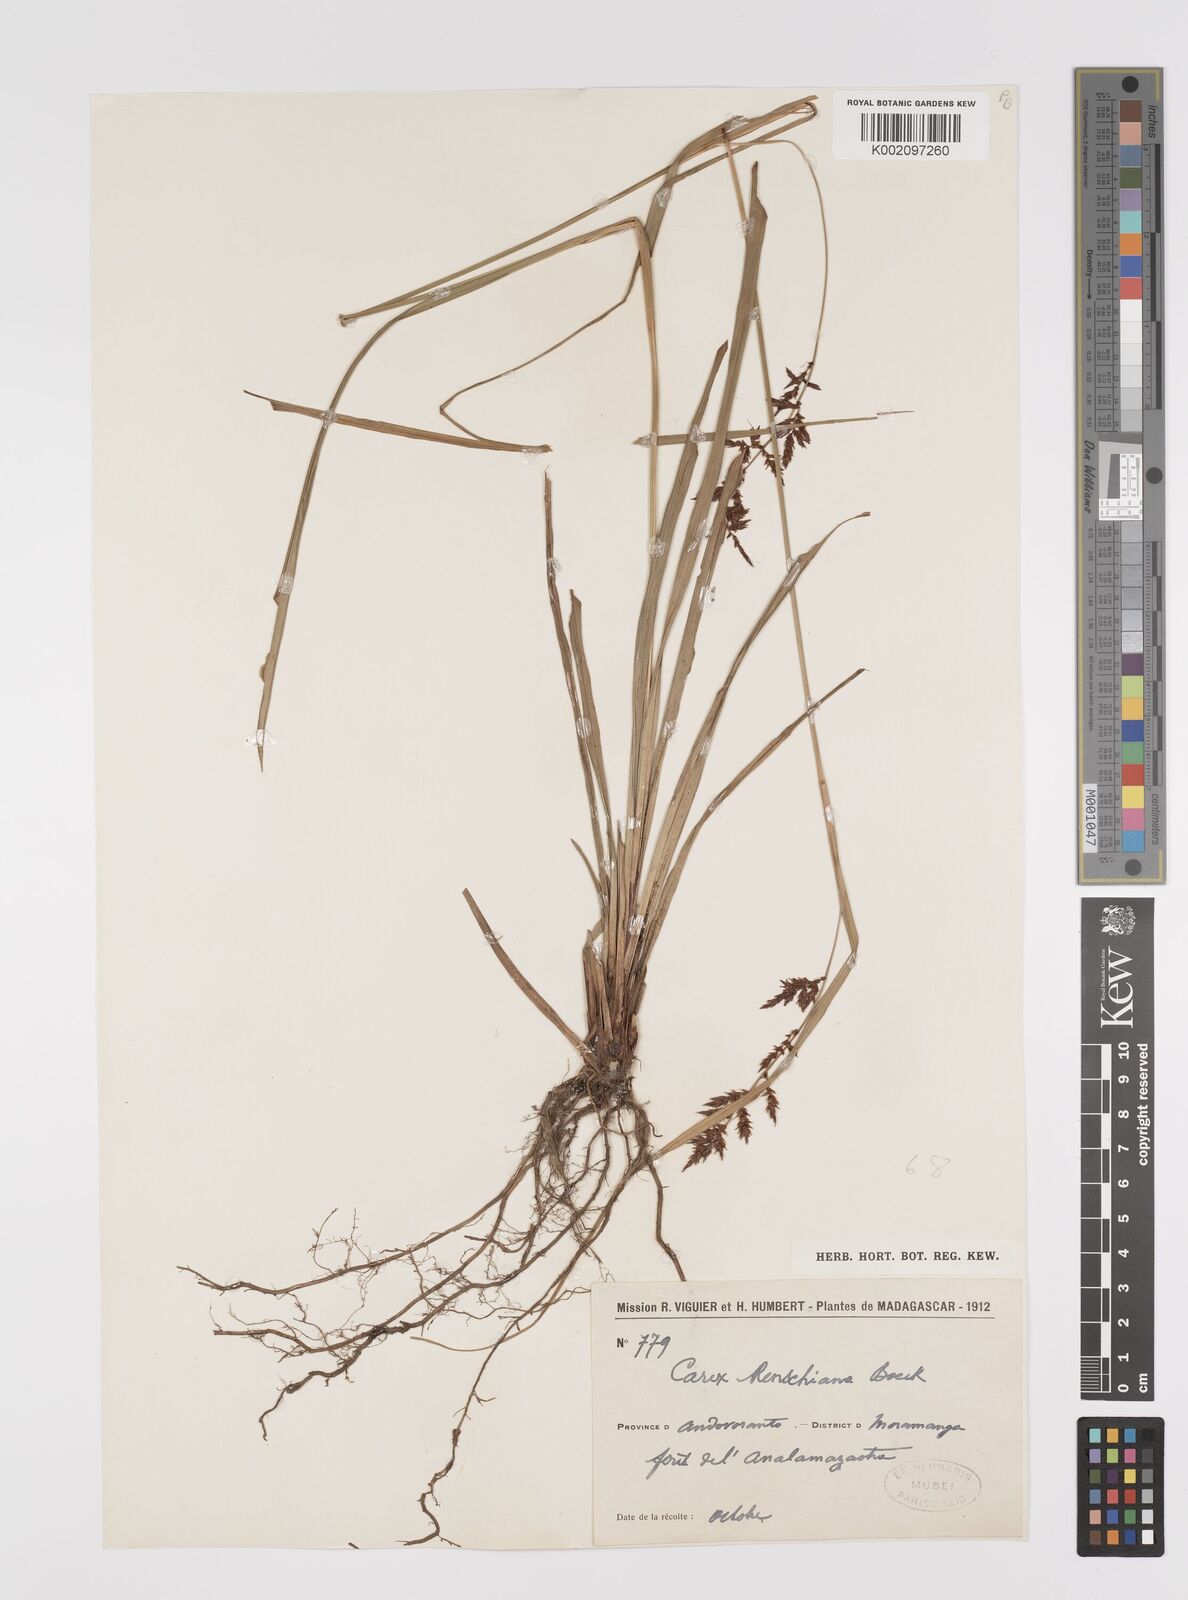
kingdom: Plantae
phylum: Tracheophyta
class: Liliopsida
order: Poales
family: Cyperaceae
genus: Carex
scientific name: Carex renschiana
